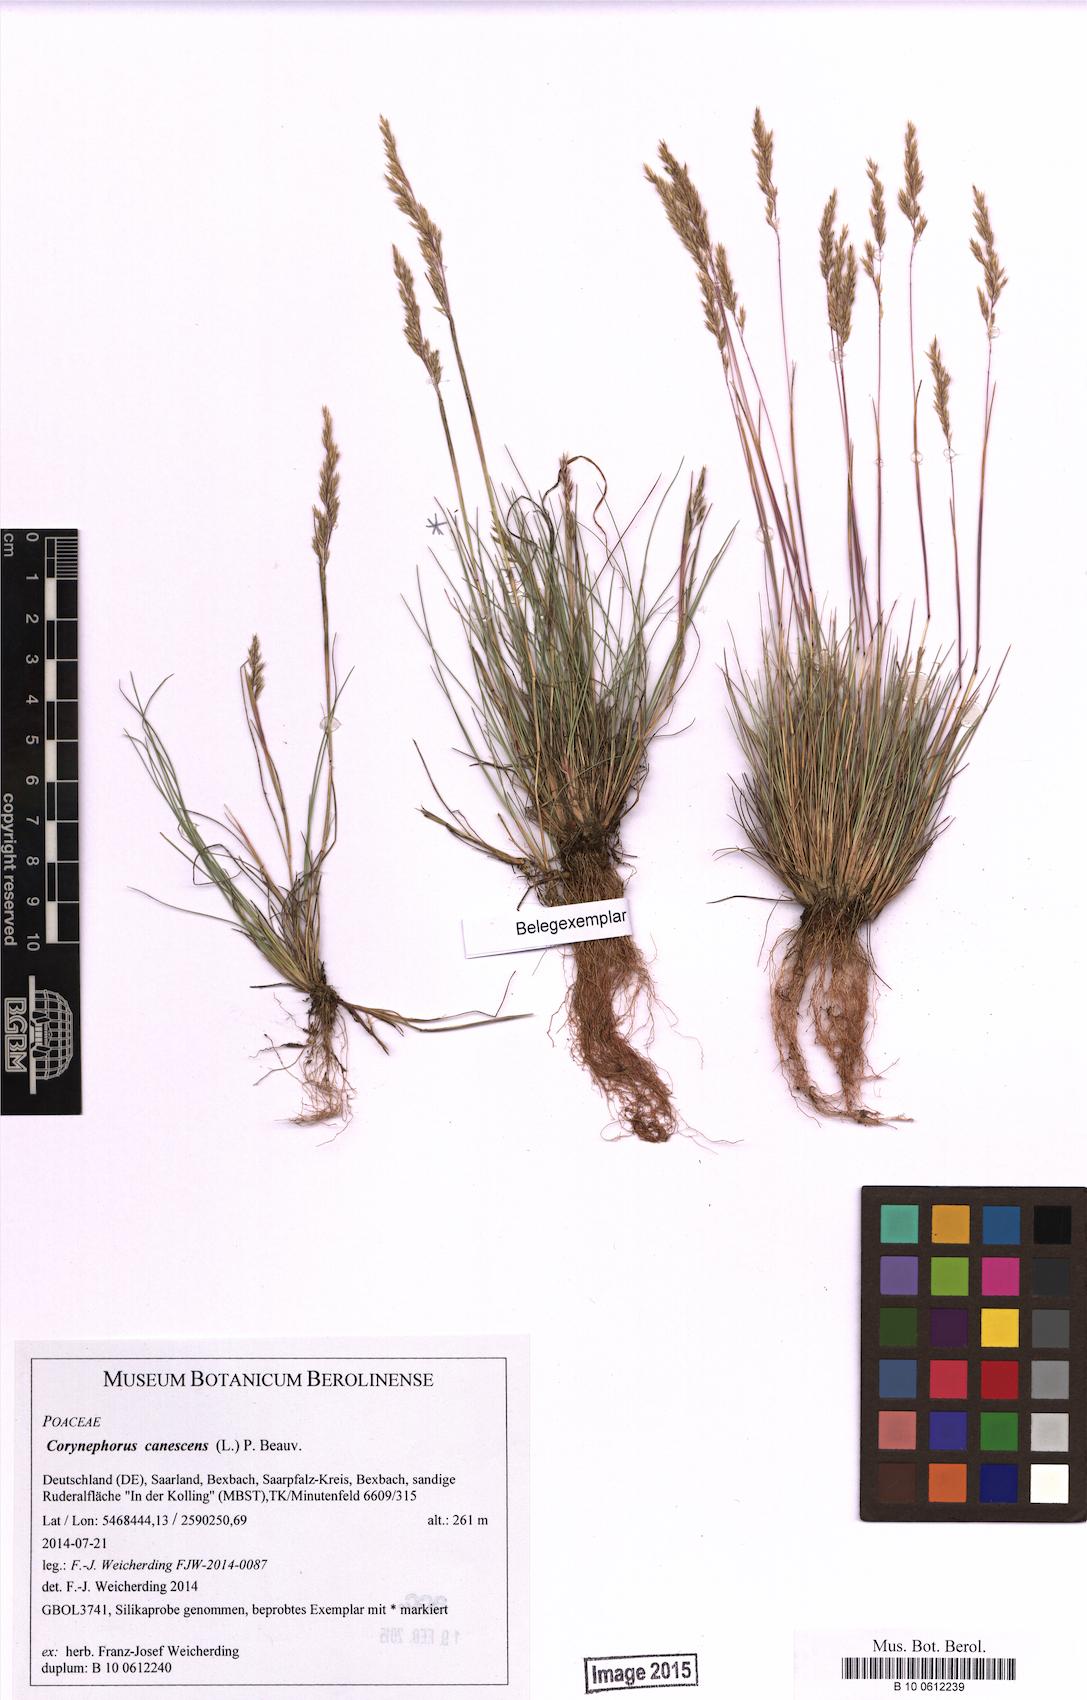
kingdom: Plantae
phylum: Tracheophyta
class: Liliopsida
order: Poales
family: Poaceae
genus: Corynephorus
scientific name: Corynephorus canescens
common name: Grey hair-grass
